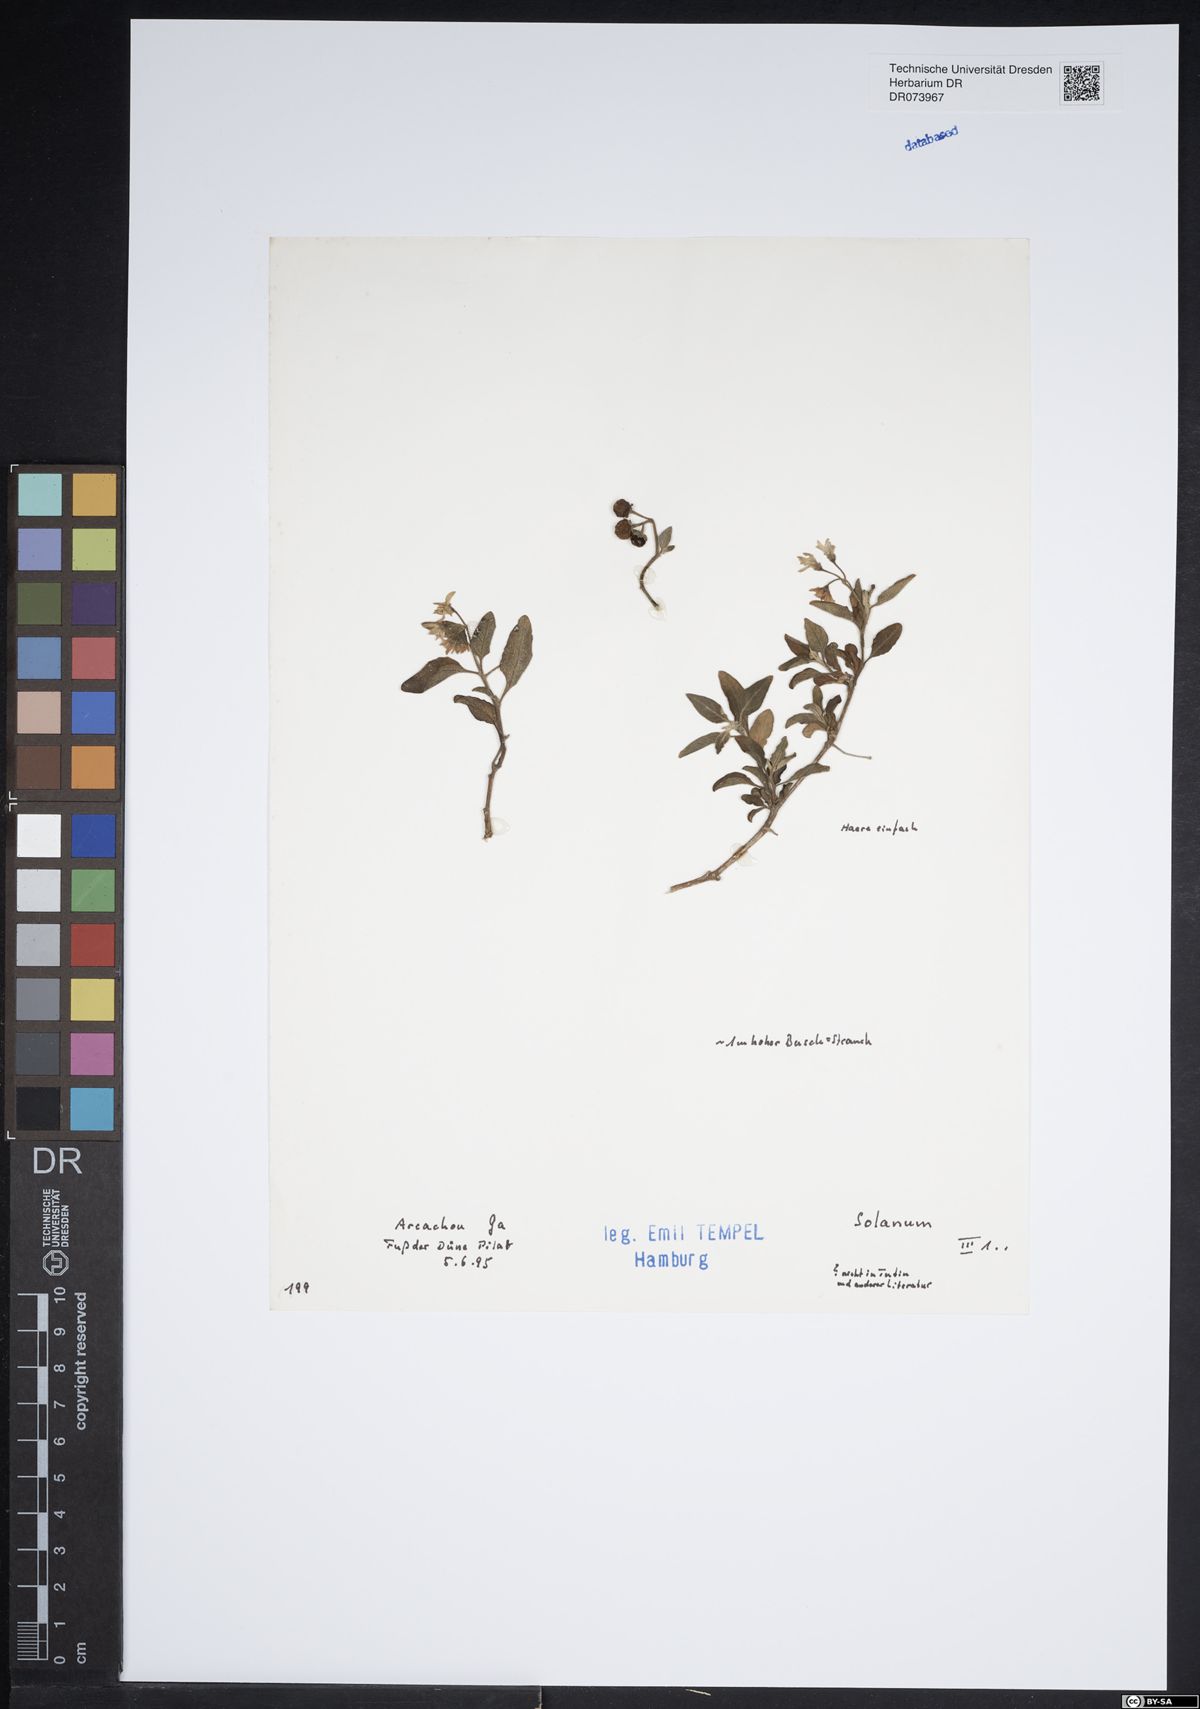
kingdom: Plantae
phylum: Tracheophyta
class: Magnoliopsida
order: Solanales
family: Solanaceae
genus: Solanum
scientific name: Solanum
